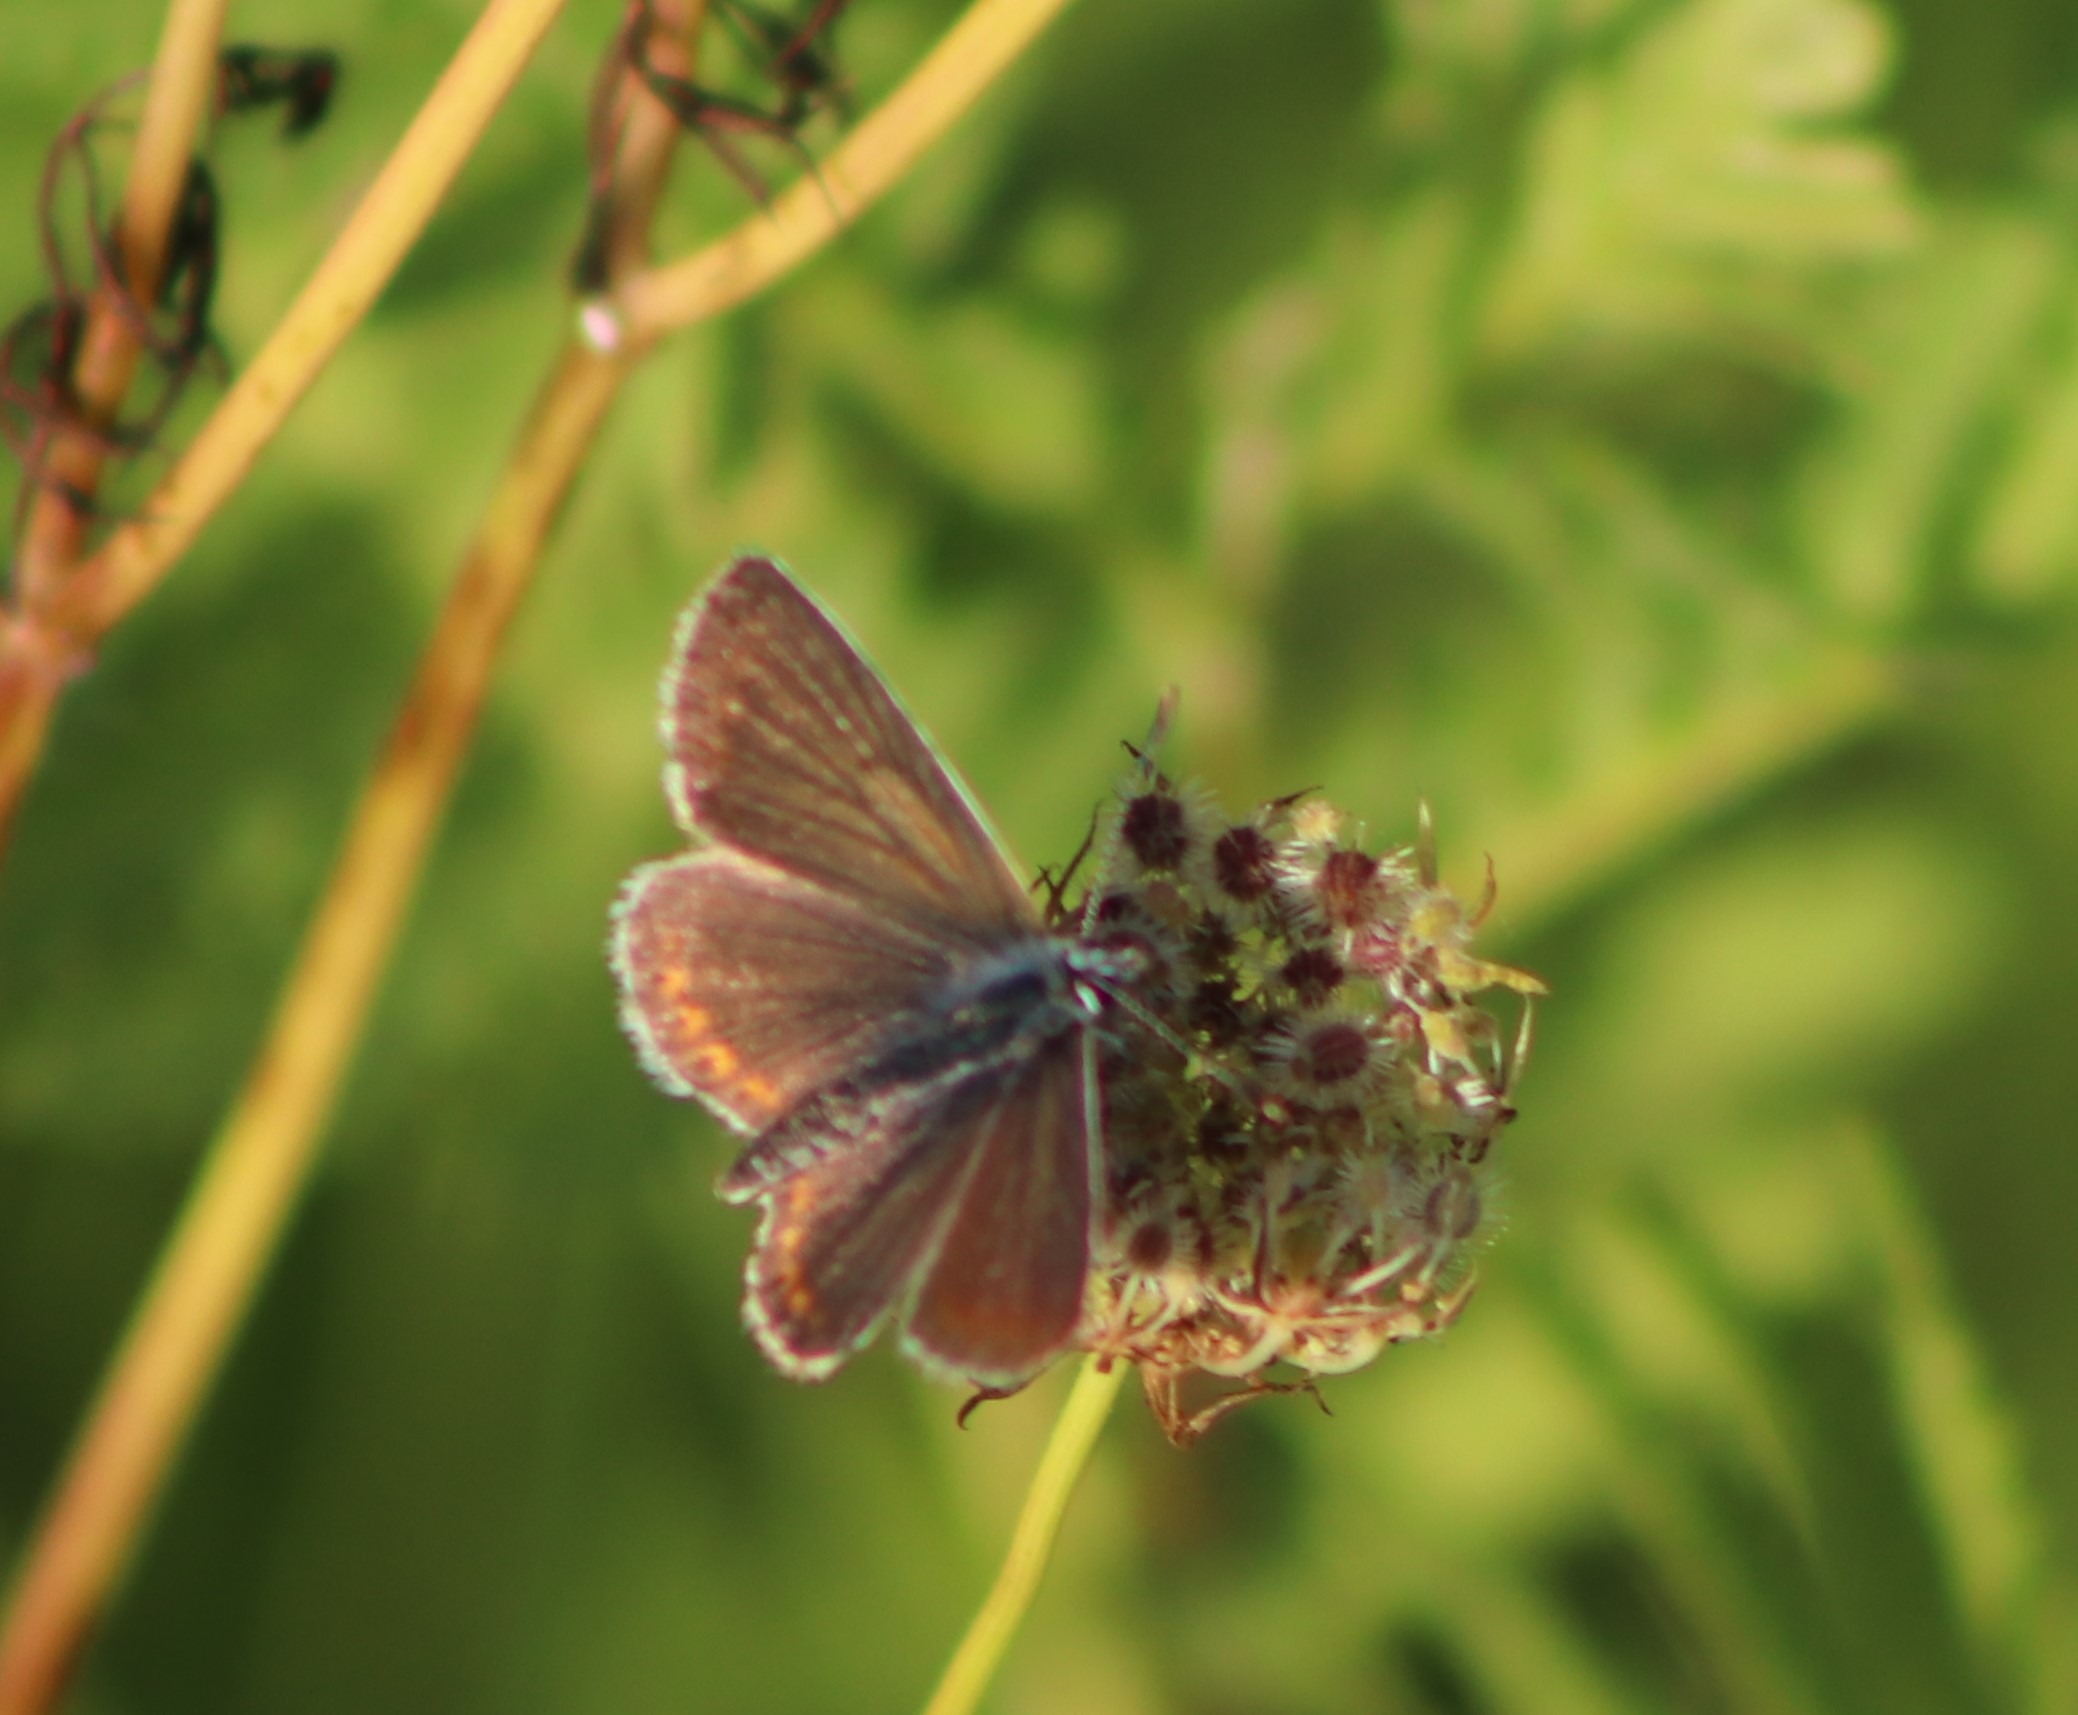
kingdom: Animalia
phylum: Arthropoda
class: Insecta
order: Lepidoptera
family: Lycaenidae
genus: Aricia
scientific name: Aricia agestis
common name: Rødplettet blåfugl
